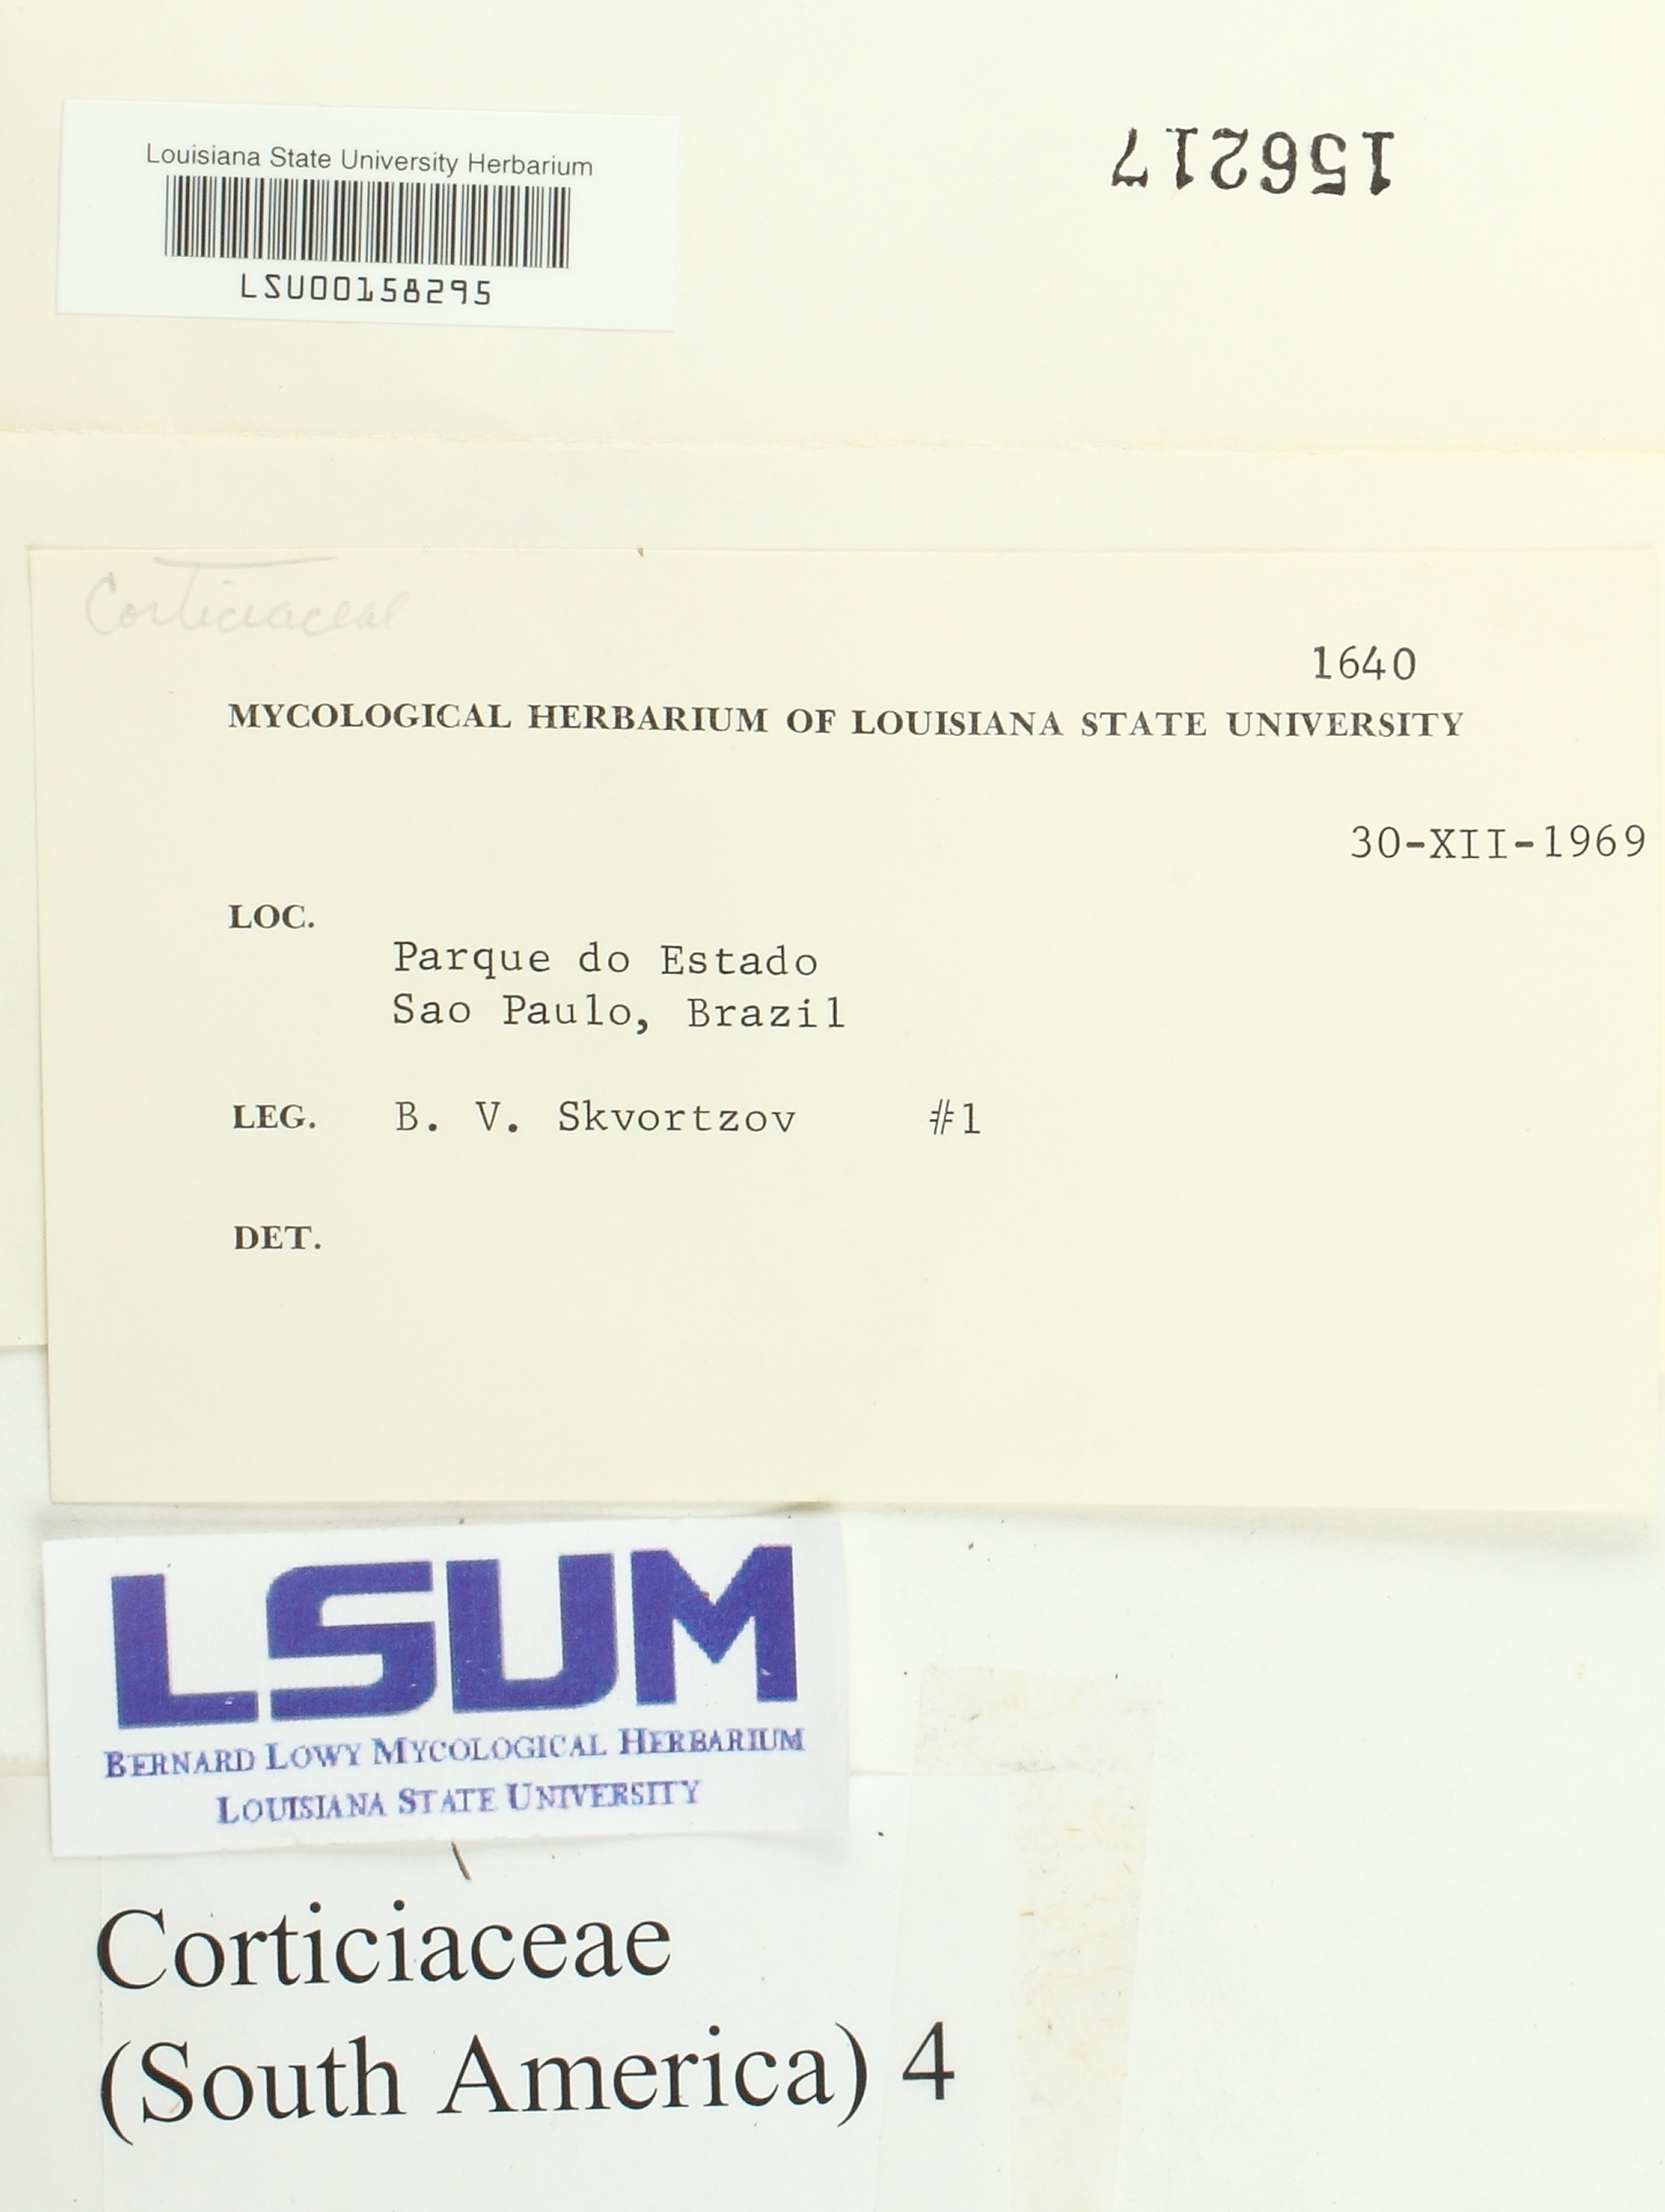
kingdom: Fungi
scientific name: Fungi
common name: Fungi
